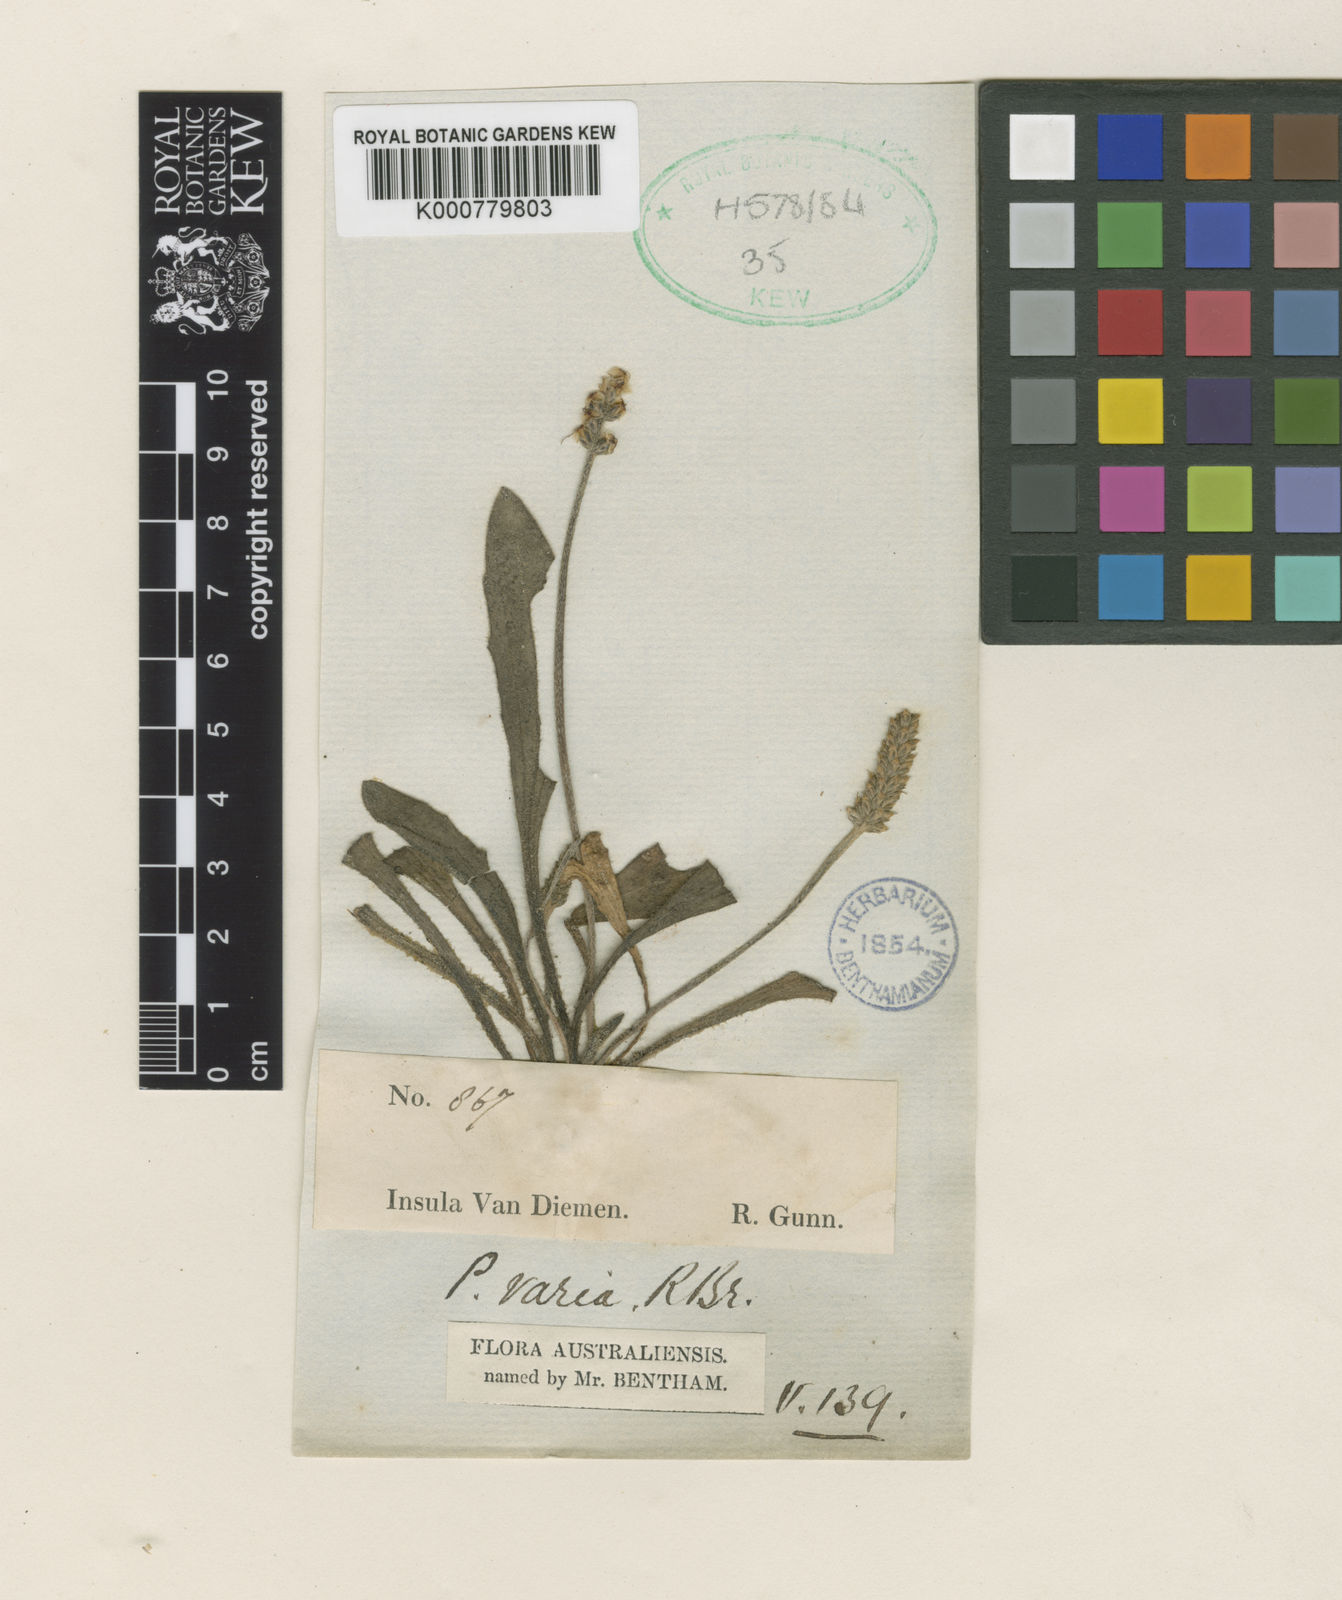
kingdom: Plantae
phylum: Tracheophyta
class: Magnoliopsida
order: Lamiales
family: Plantaginaceae
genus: Plantago
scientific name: Plantago bellidioides
